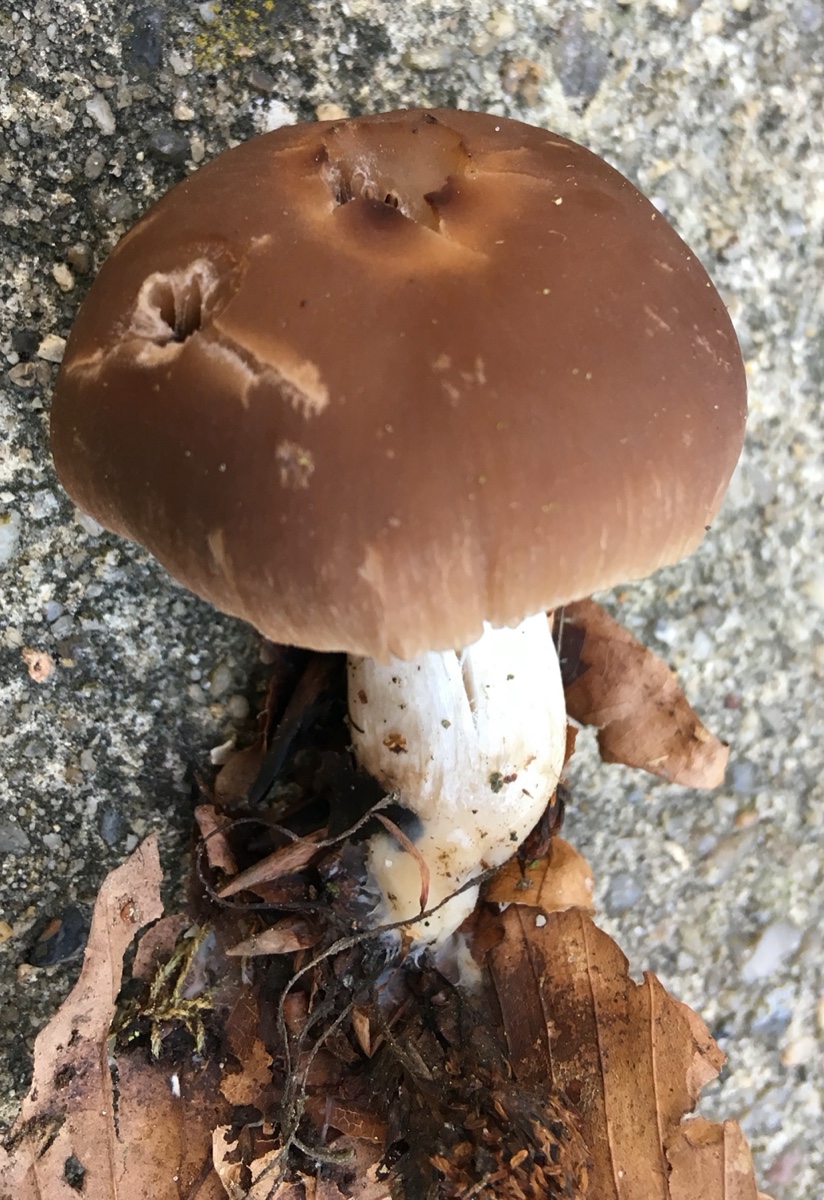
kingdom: Fungi
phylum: Basidiomycota
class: Agaricomycetes
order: Agaricales
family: Psathyrellaceae
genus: Psathyrella
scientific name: Psathyrella spadiceogrisea
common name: gråbrun mørkhat
